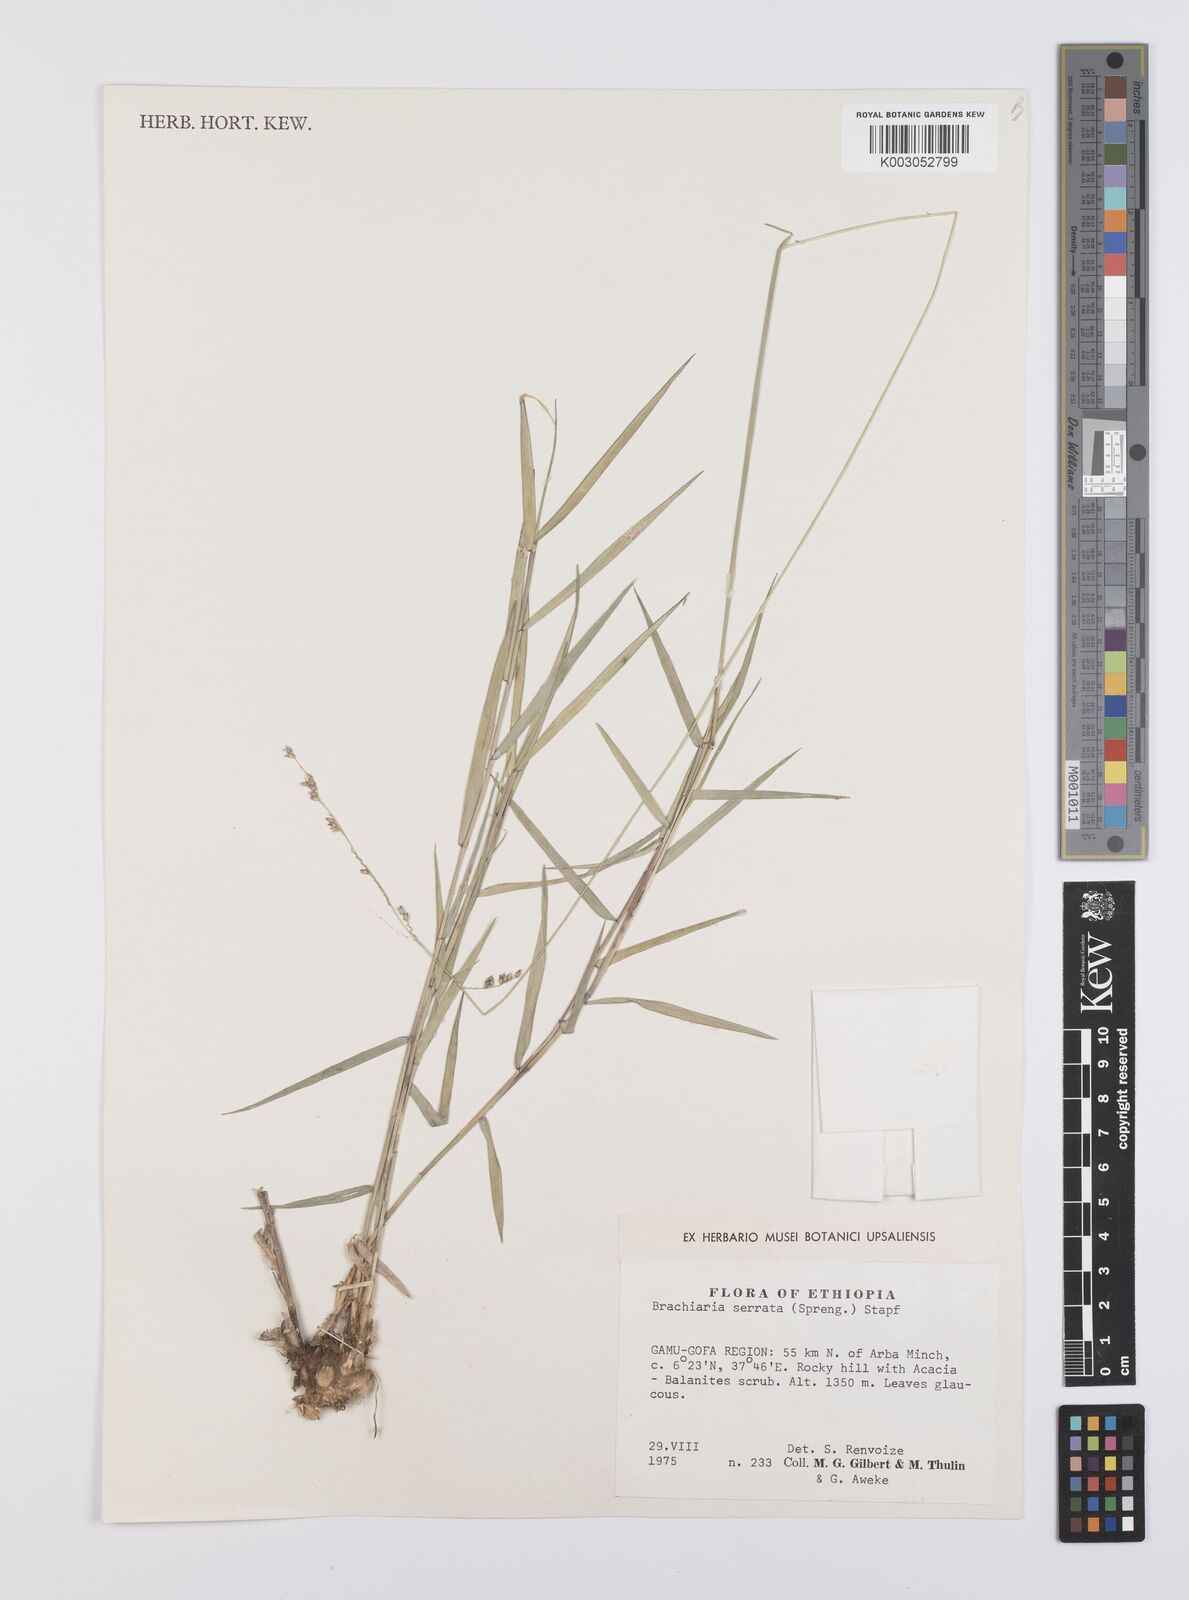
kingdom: Plantae
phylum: Tracheophyta
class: Liliopsida
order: Poales
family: Poaceae
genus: Urochloa
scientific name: Urochloa serrata
